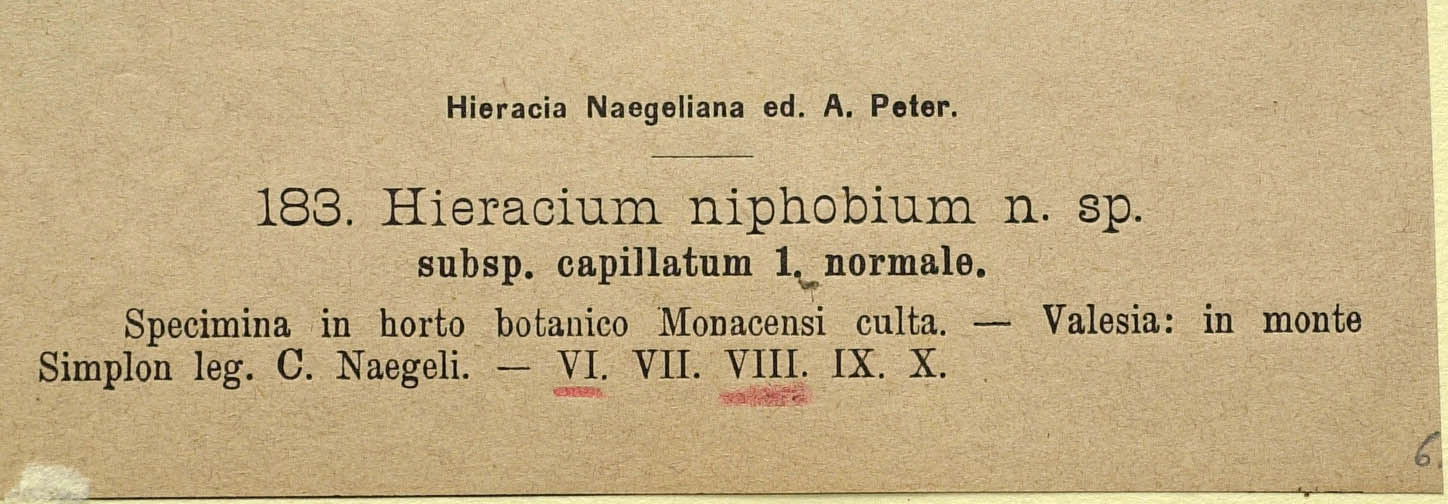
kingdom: Plantae
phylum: Tracheophyta
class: Magnoliopsida
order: Asterales
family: Asteraceae
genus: Pilosella
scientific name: Pilosella corymbuloides
